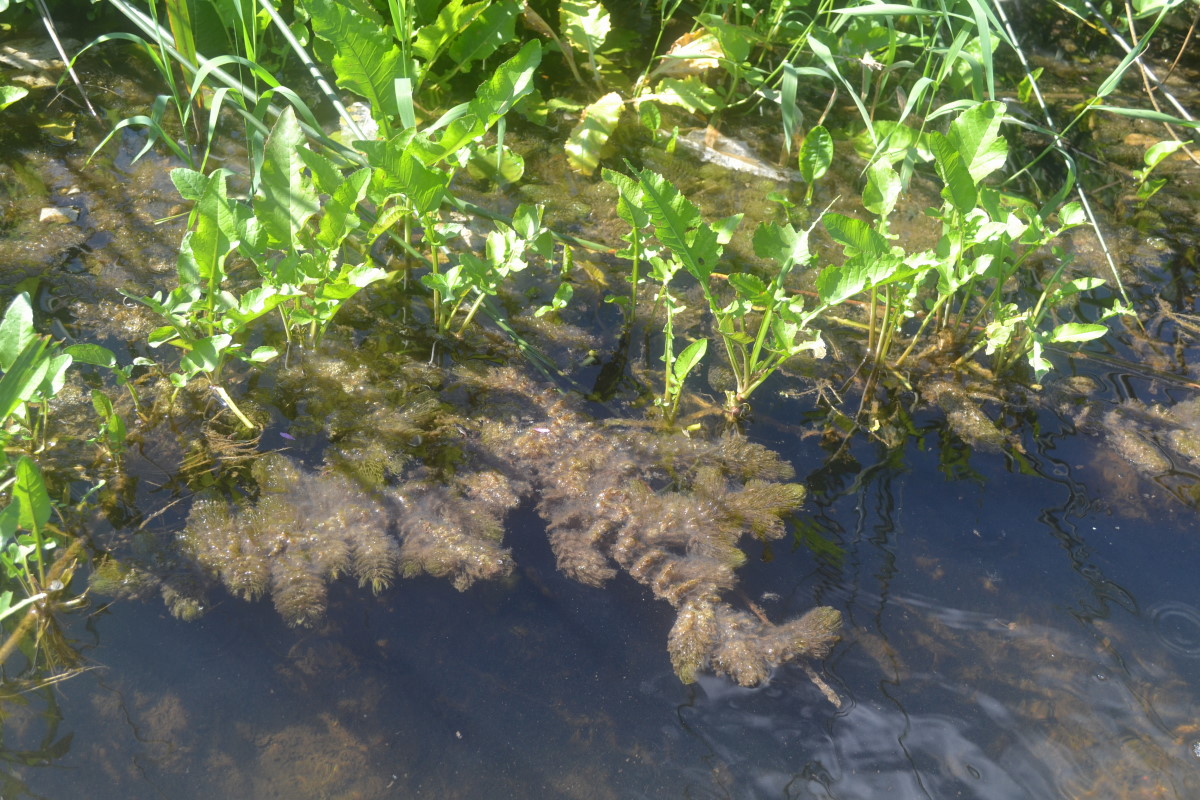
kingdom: Plantae
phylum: Tracheophyta
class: Magnoliopsida
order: Brassicales
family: Brassicaceae
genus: Rorippa
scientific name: Rorippa amphibia
